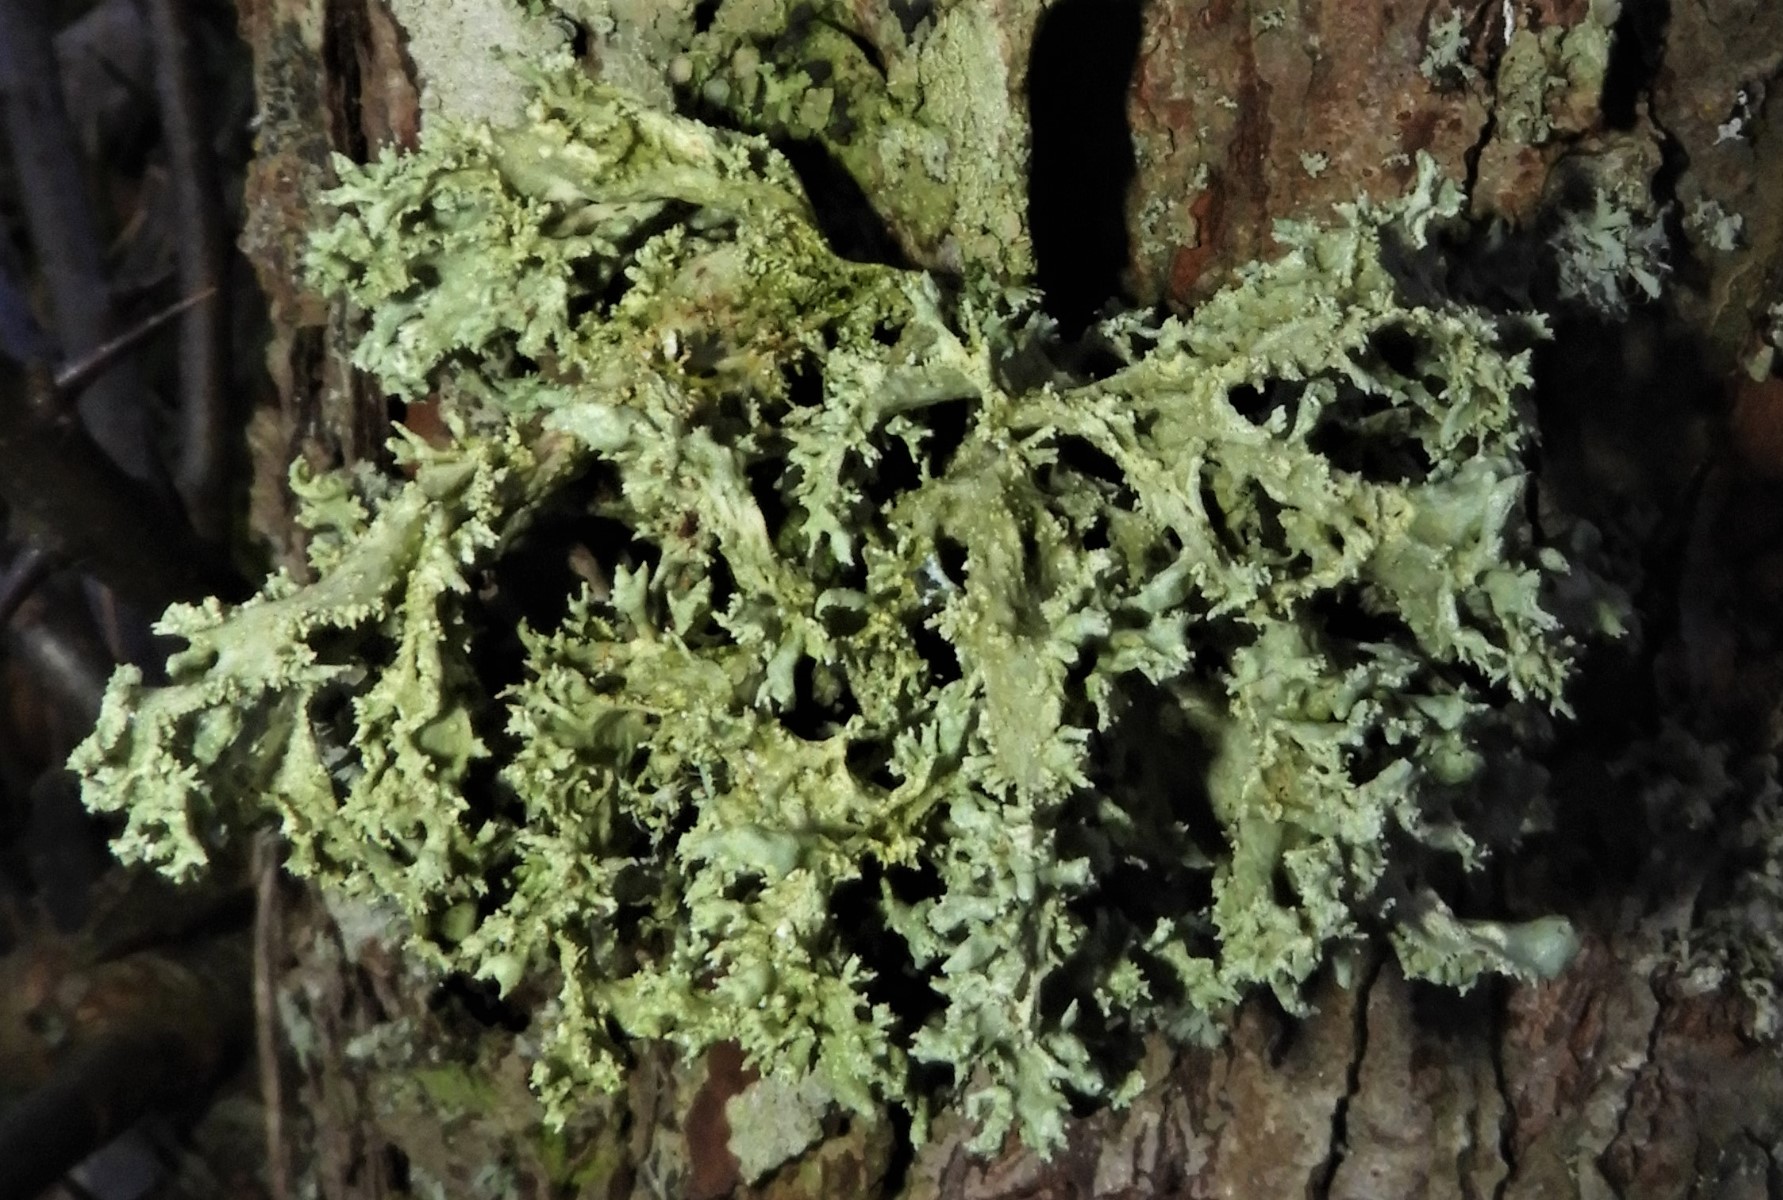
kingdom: Fungi
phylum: Ascomycota
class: Lecanoromycetes
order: Lecanorales
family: Parmeliaceae
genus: Evernia
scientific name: Evernia prunastri
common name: almindelig slåenlav
